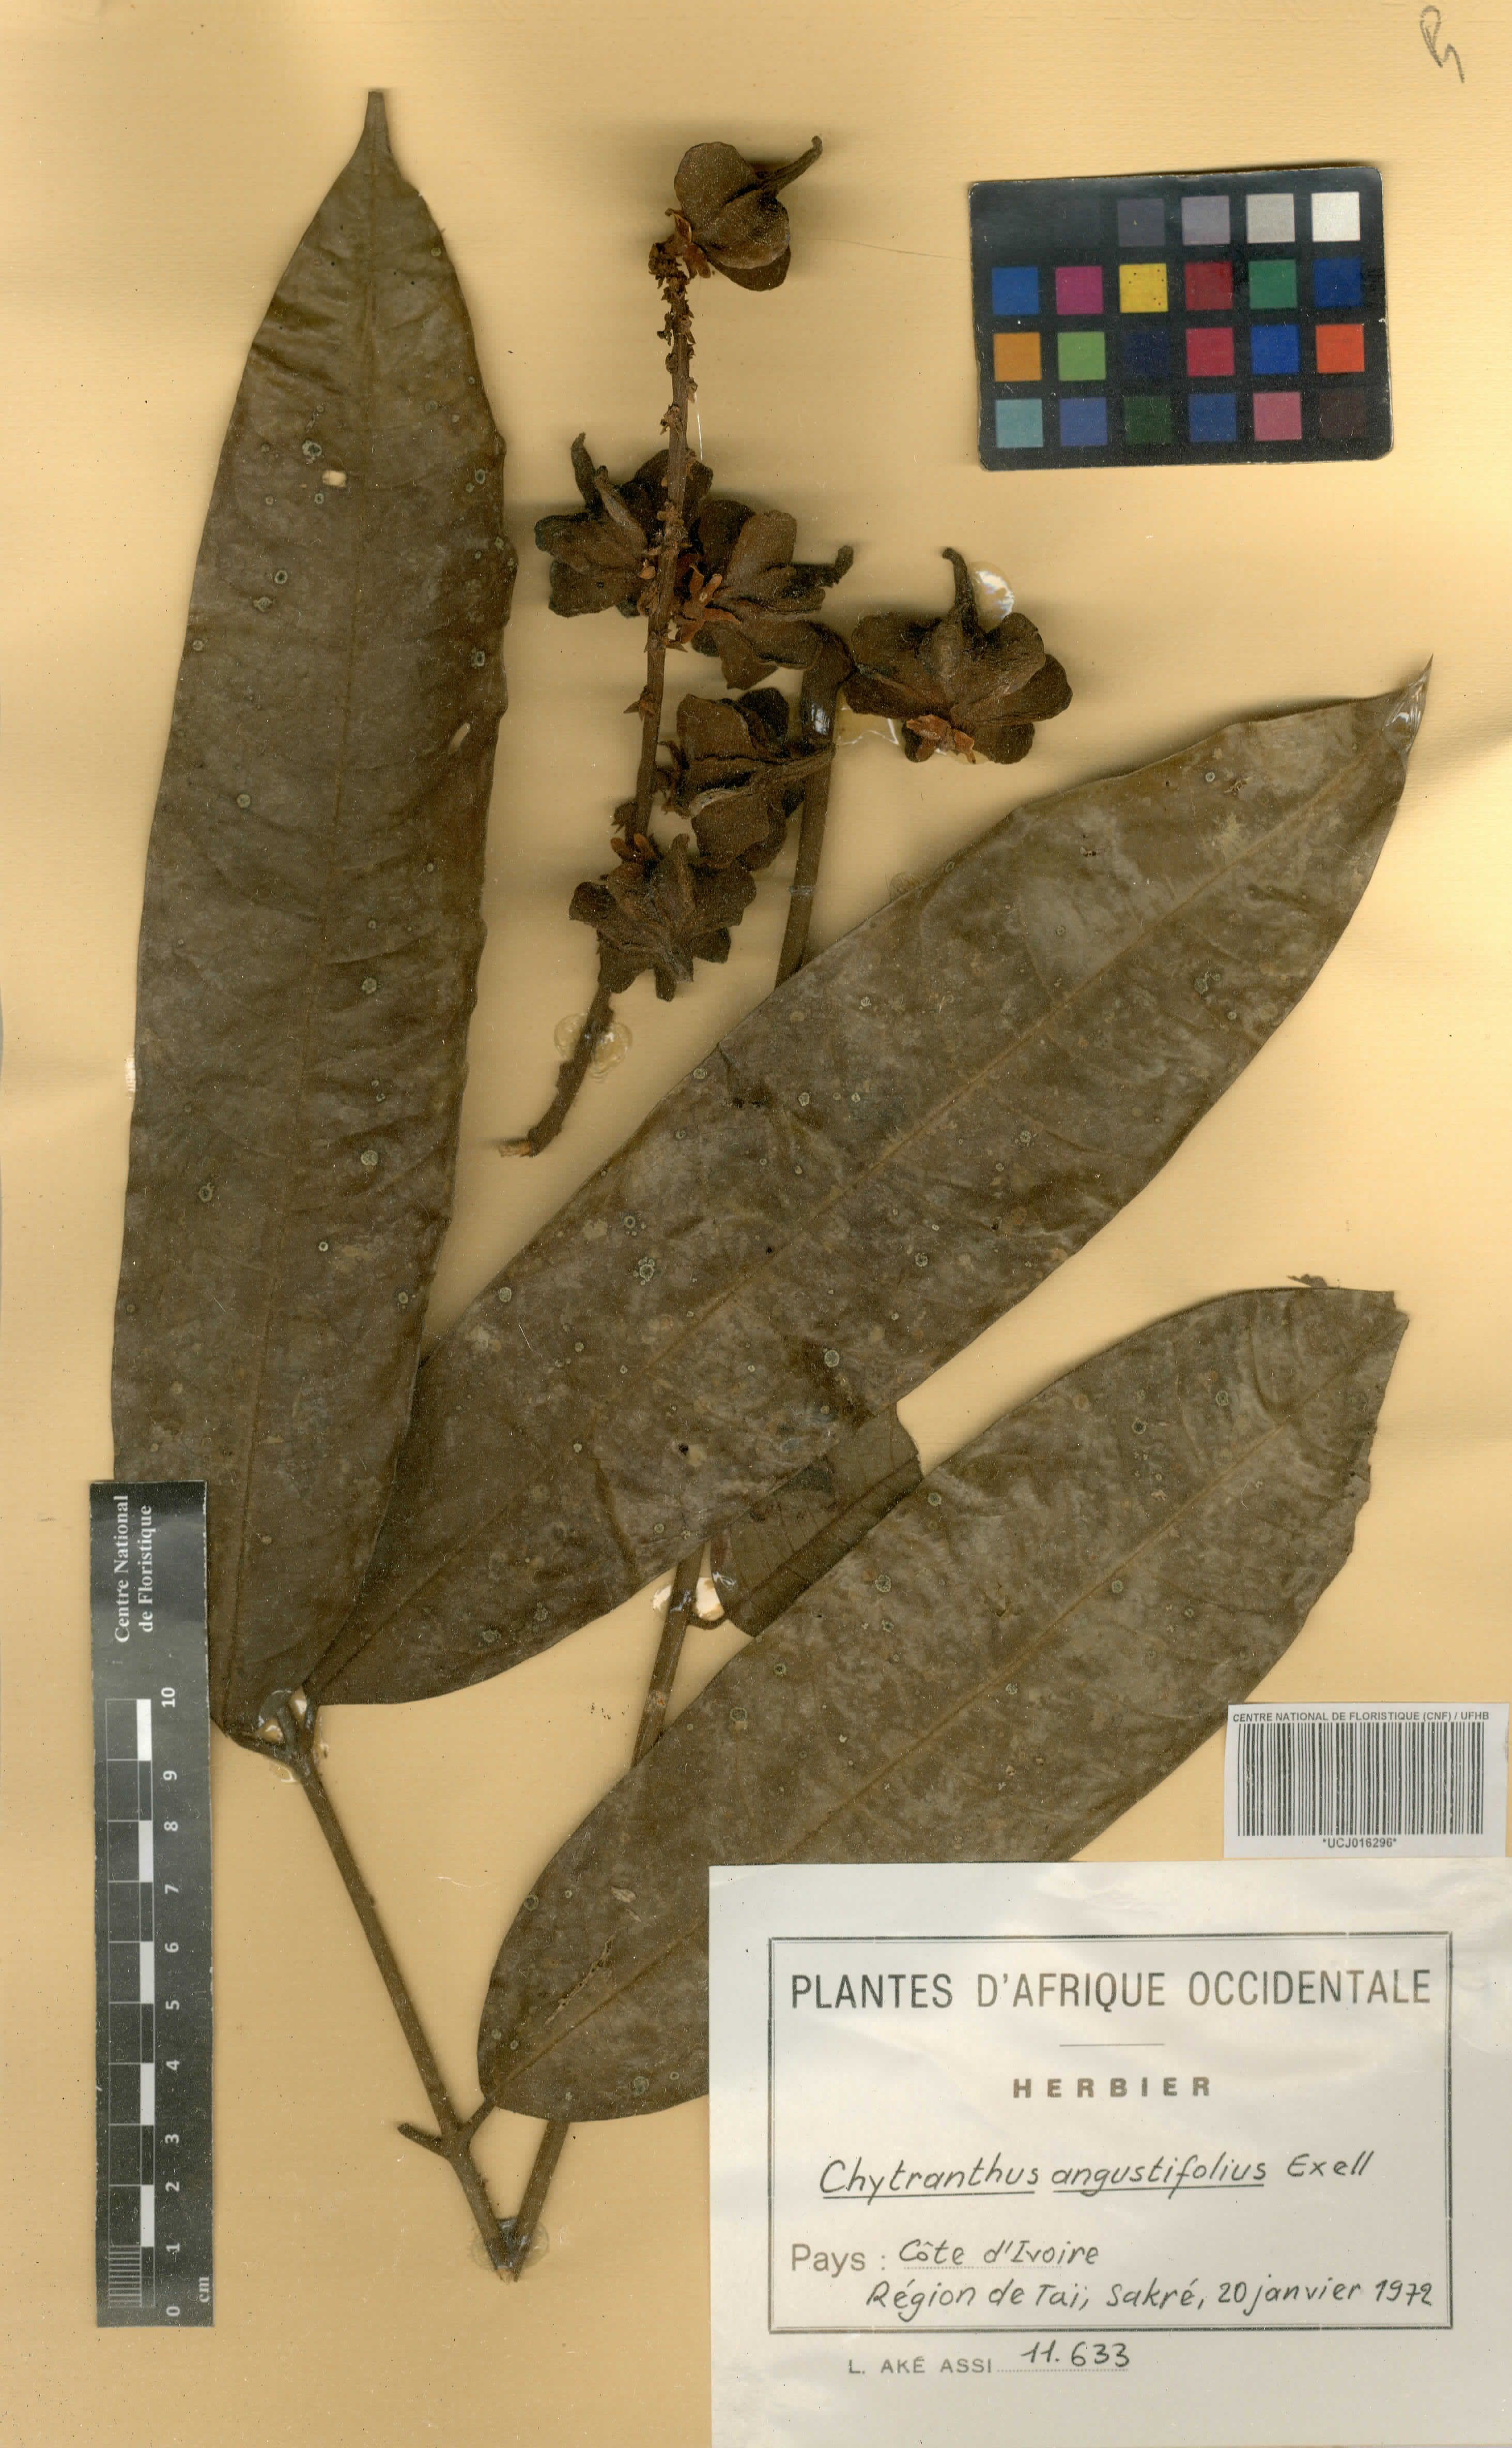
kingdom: Plantae
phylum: Tracheophyta
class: Magnoliopsida
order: Sapindales
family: Sapindaceae
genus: Chytranthus
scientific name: Chytranthus angustifolius
